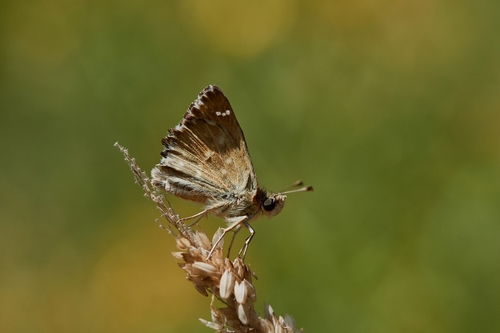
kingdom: Animalia
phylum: Arthropoda
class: Insecta
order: Lepidoptera
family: Hesperiidae
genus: Carcharodus
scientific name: Carcharodus alceae
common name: Mallow skipper
